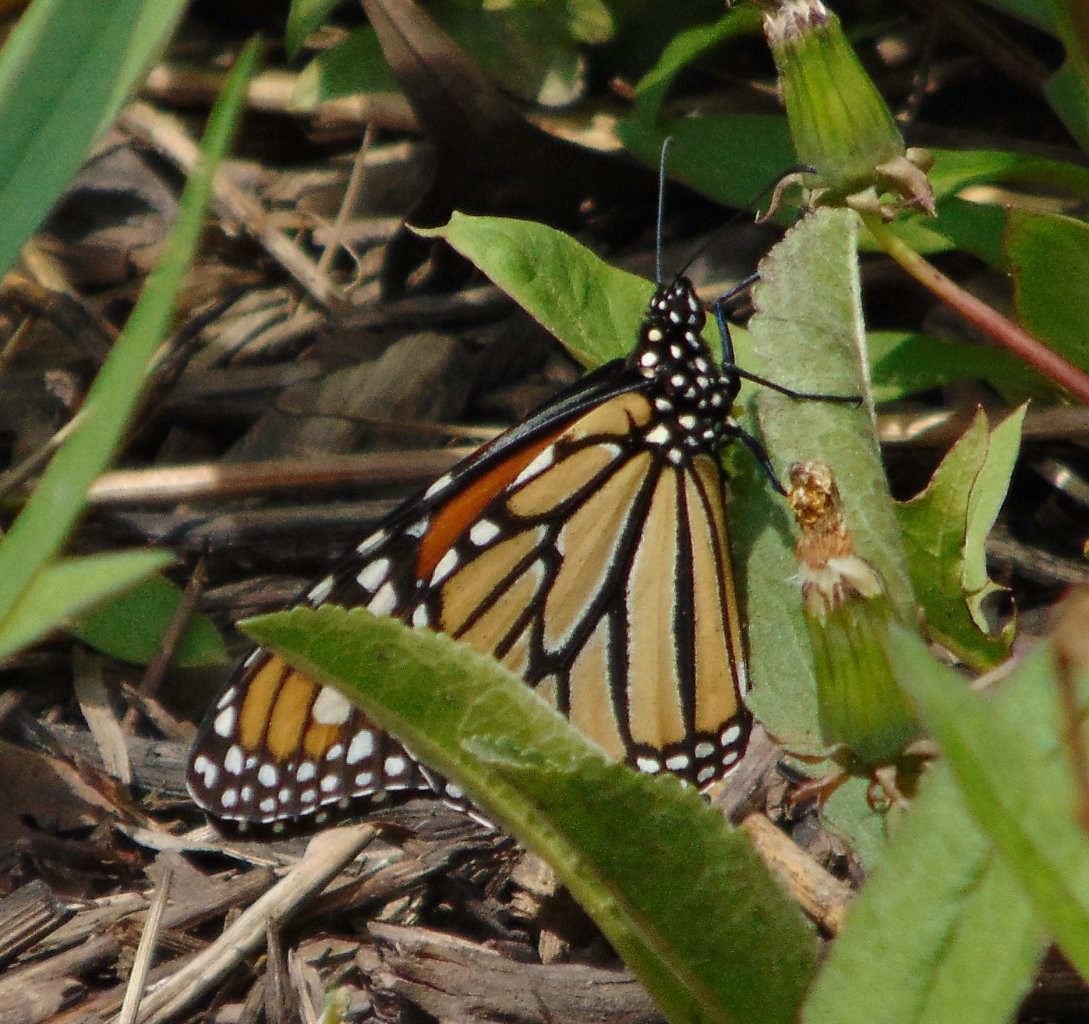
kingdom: Animalia
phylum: Arthropoda
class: Insecta
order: Lepidoptera
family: Nymphalidae
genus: Danaus
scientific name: Danaus plexippus
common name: Monarch
